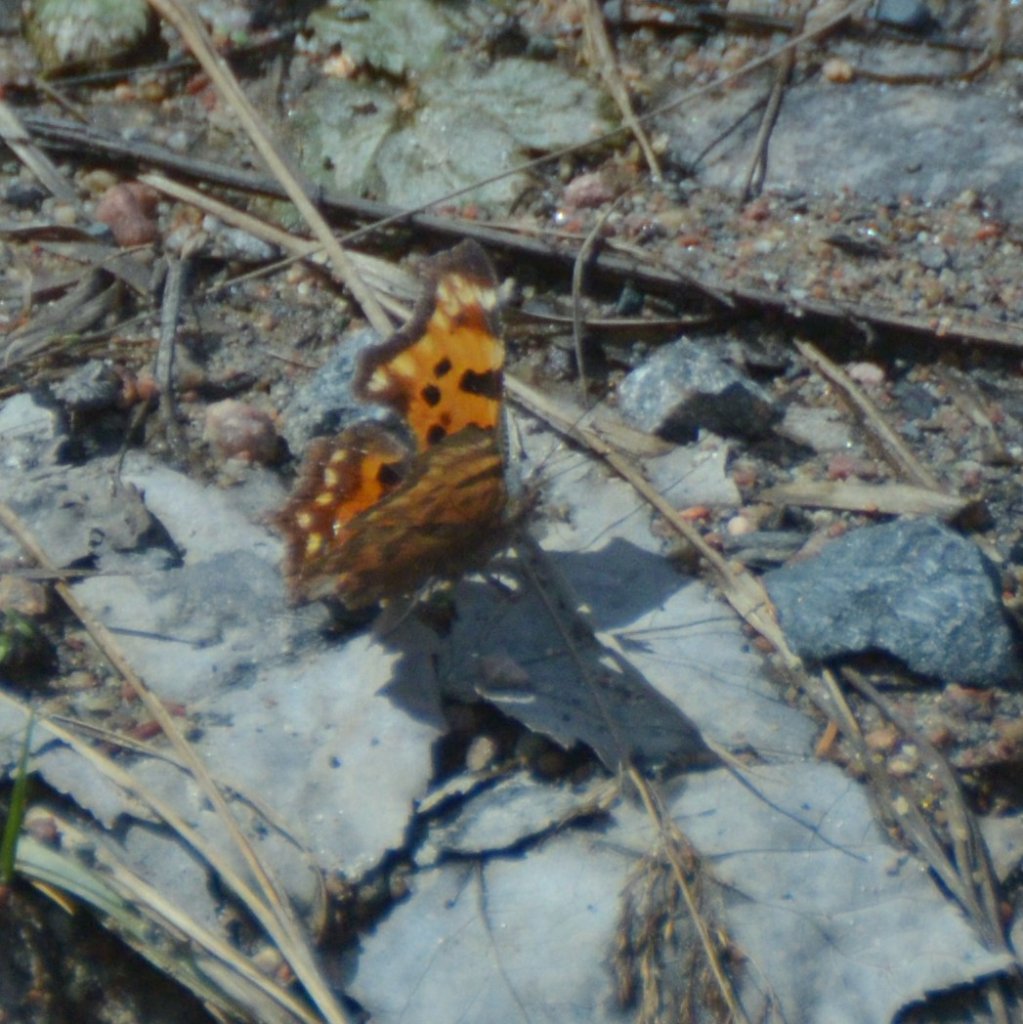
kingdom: Animalia
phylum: Arthropoda
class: Insecta
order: Lepidoptera
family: Nymphalidae
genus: Polygonia
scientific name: Polygonia faunus
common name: Green Comma
